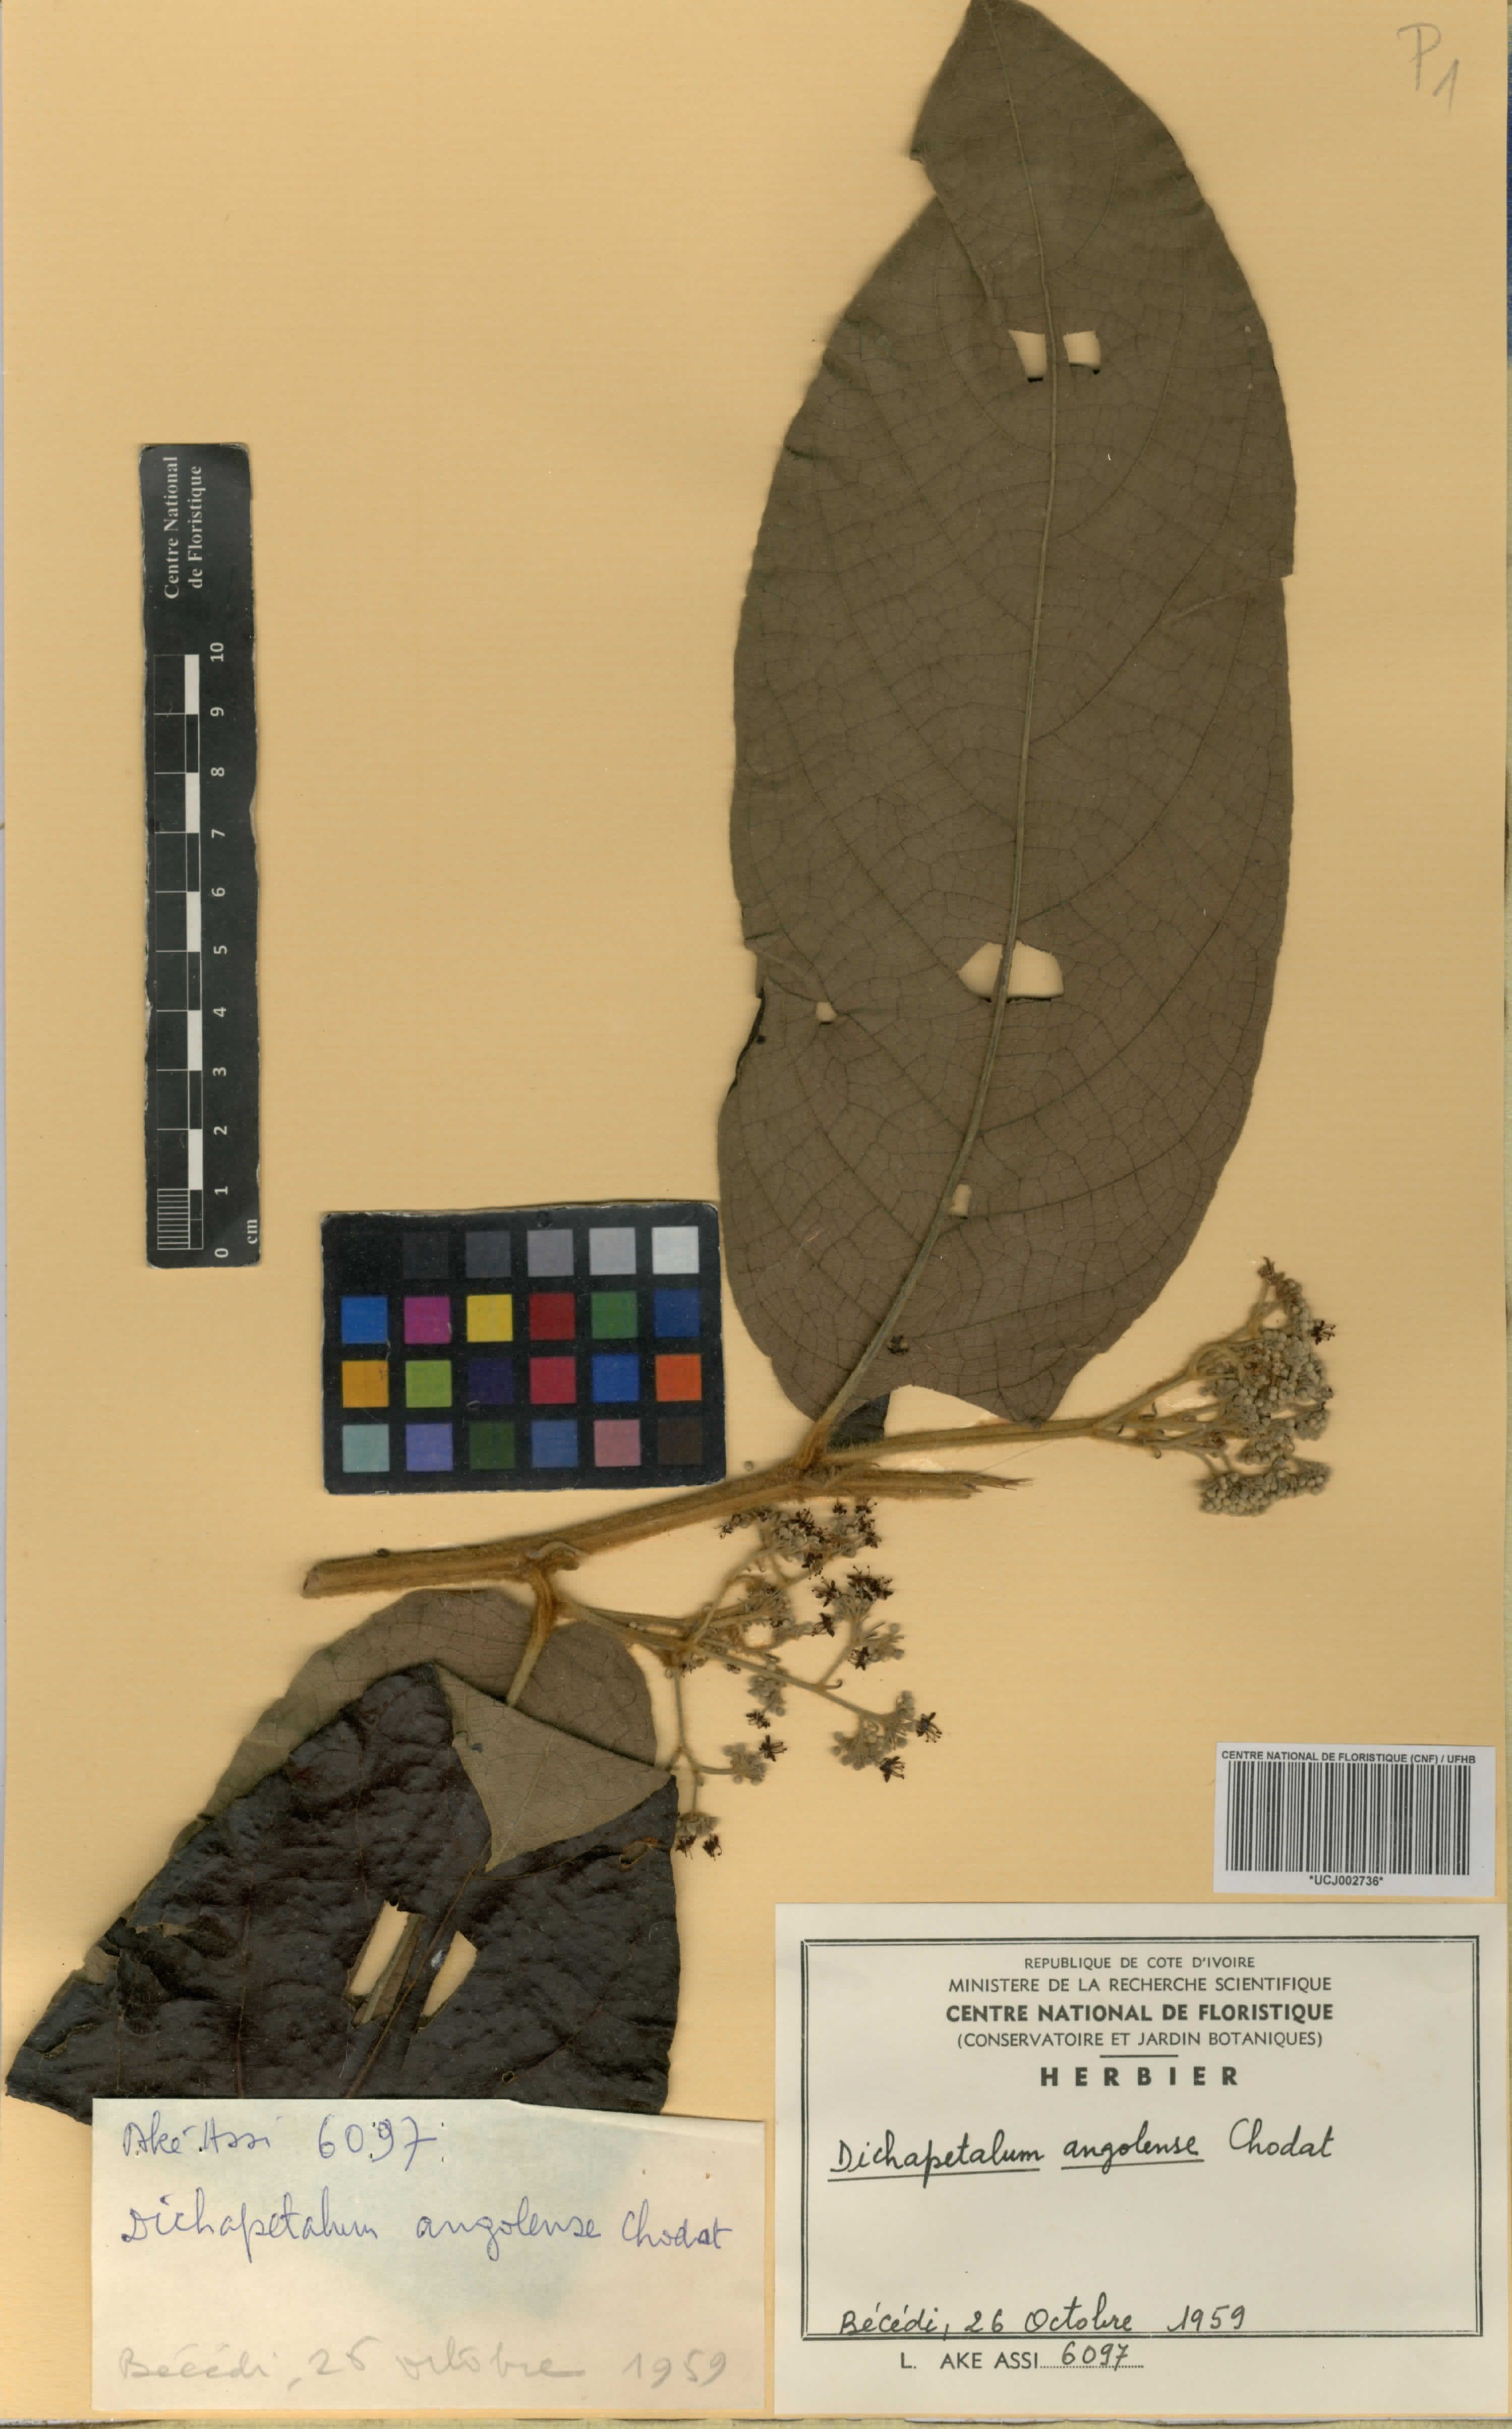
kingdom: Plantae
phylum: Tracheophyta
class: Magnoliopsida
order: Malpighiales
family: Dichapetalaceae
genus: Dichapetalum
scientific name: Dichapetalum angolense
